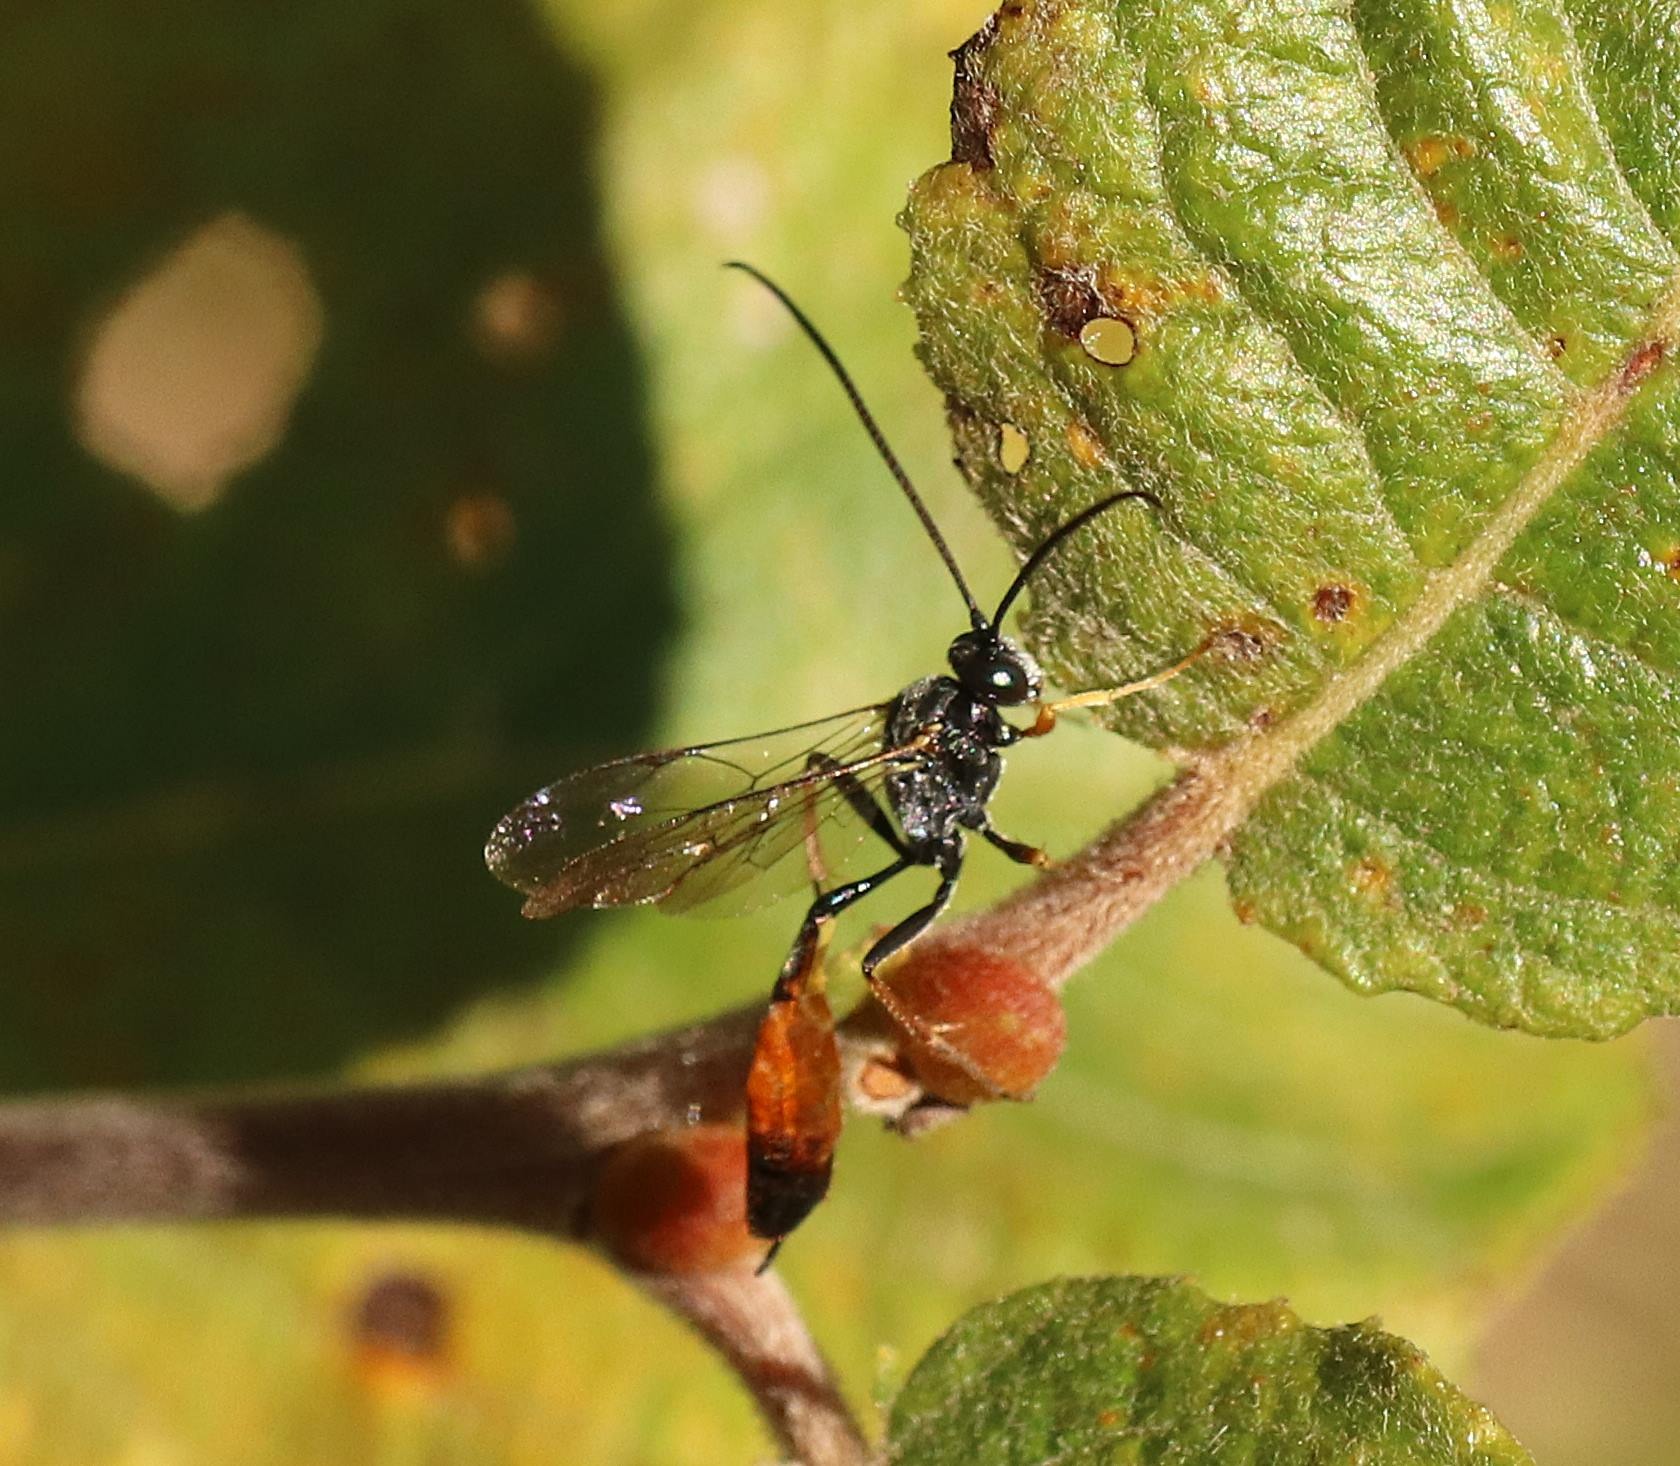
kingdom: Animalia
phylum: Arthropoda
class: Insecta
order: Hymenoptera
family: Ichneumonidae
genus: Dusona
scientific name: Dusona
